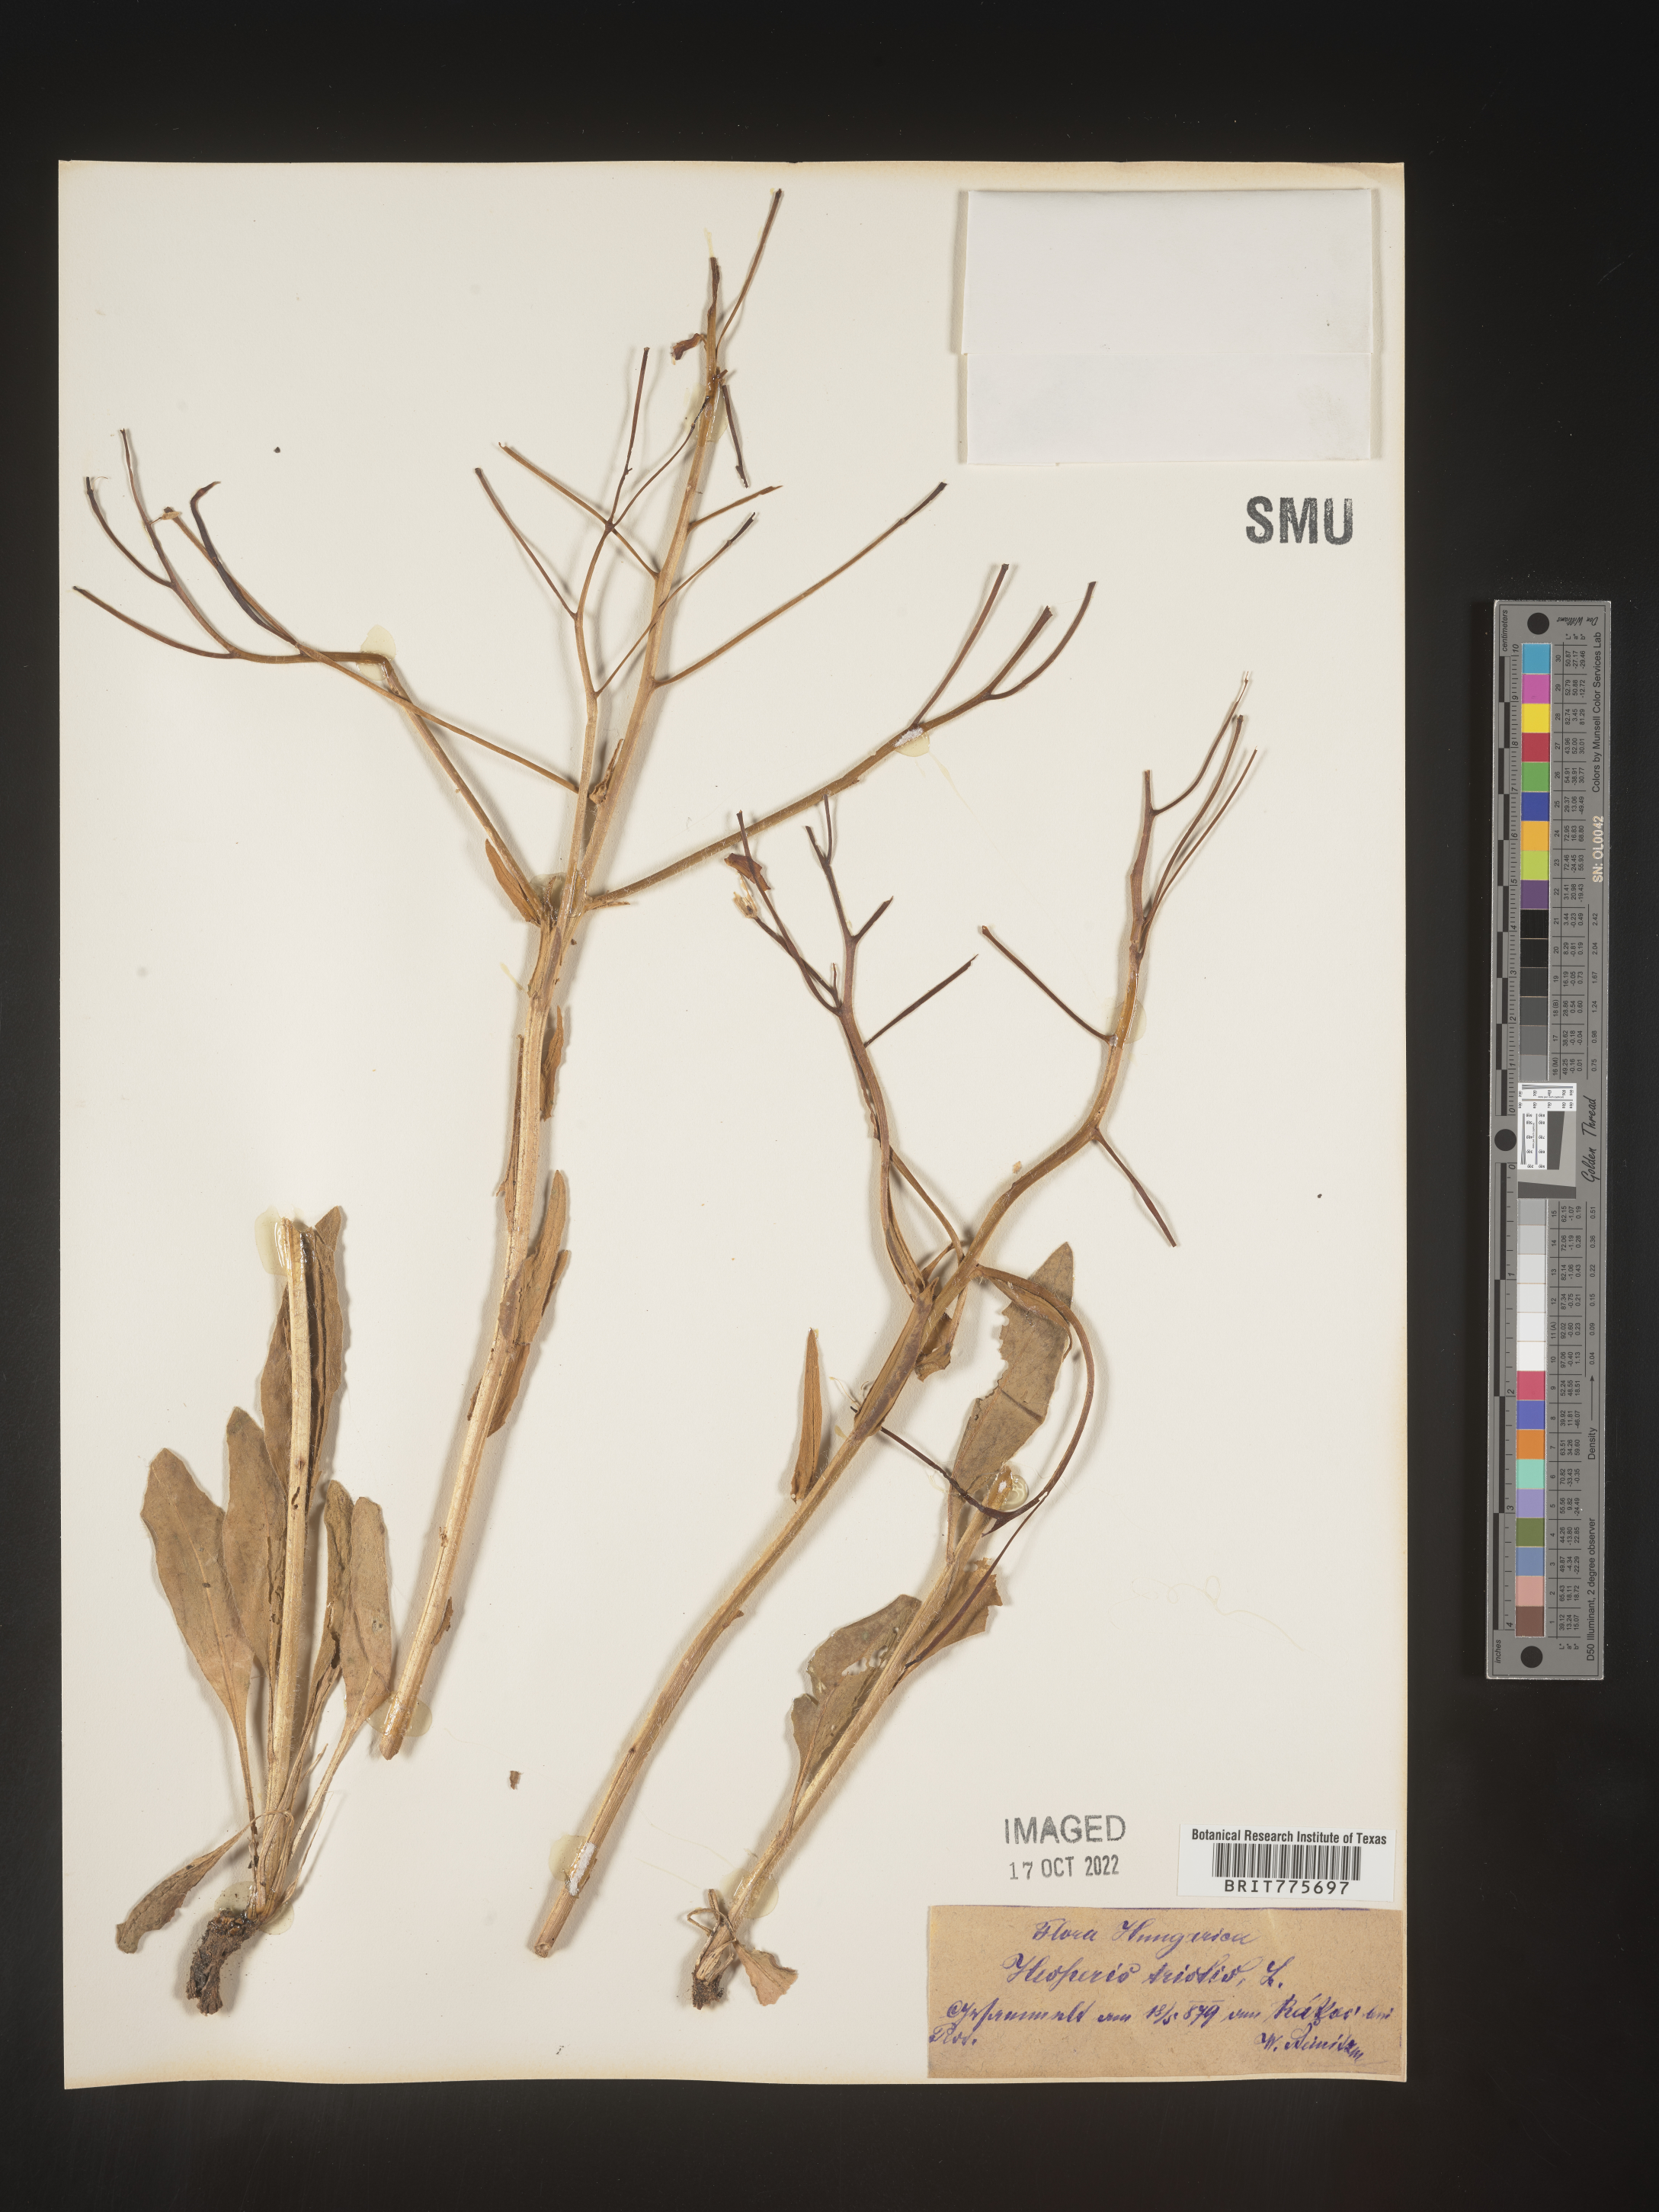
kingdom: Plantae
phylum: Tracheophyta
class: Magnoliopsida
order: Brassicales
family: Brassicaceae
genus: Hesperis
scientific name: Hesperis
